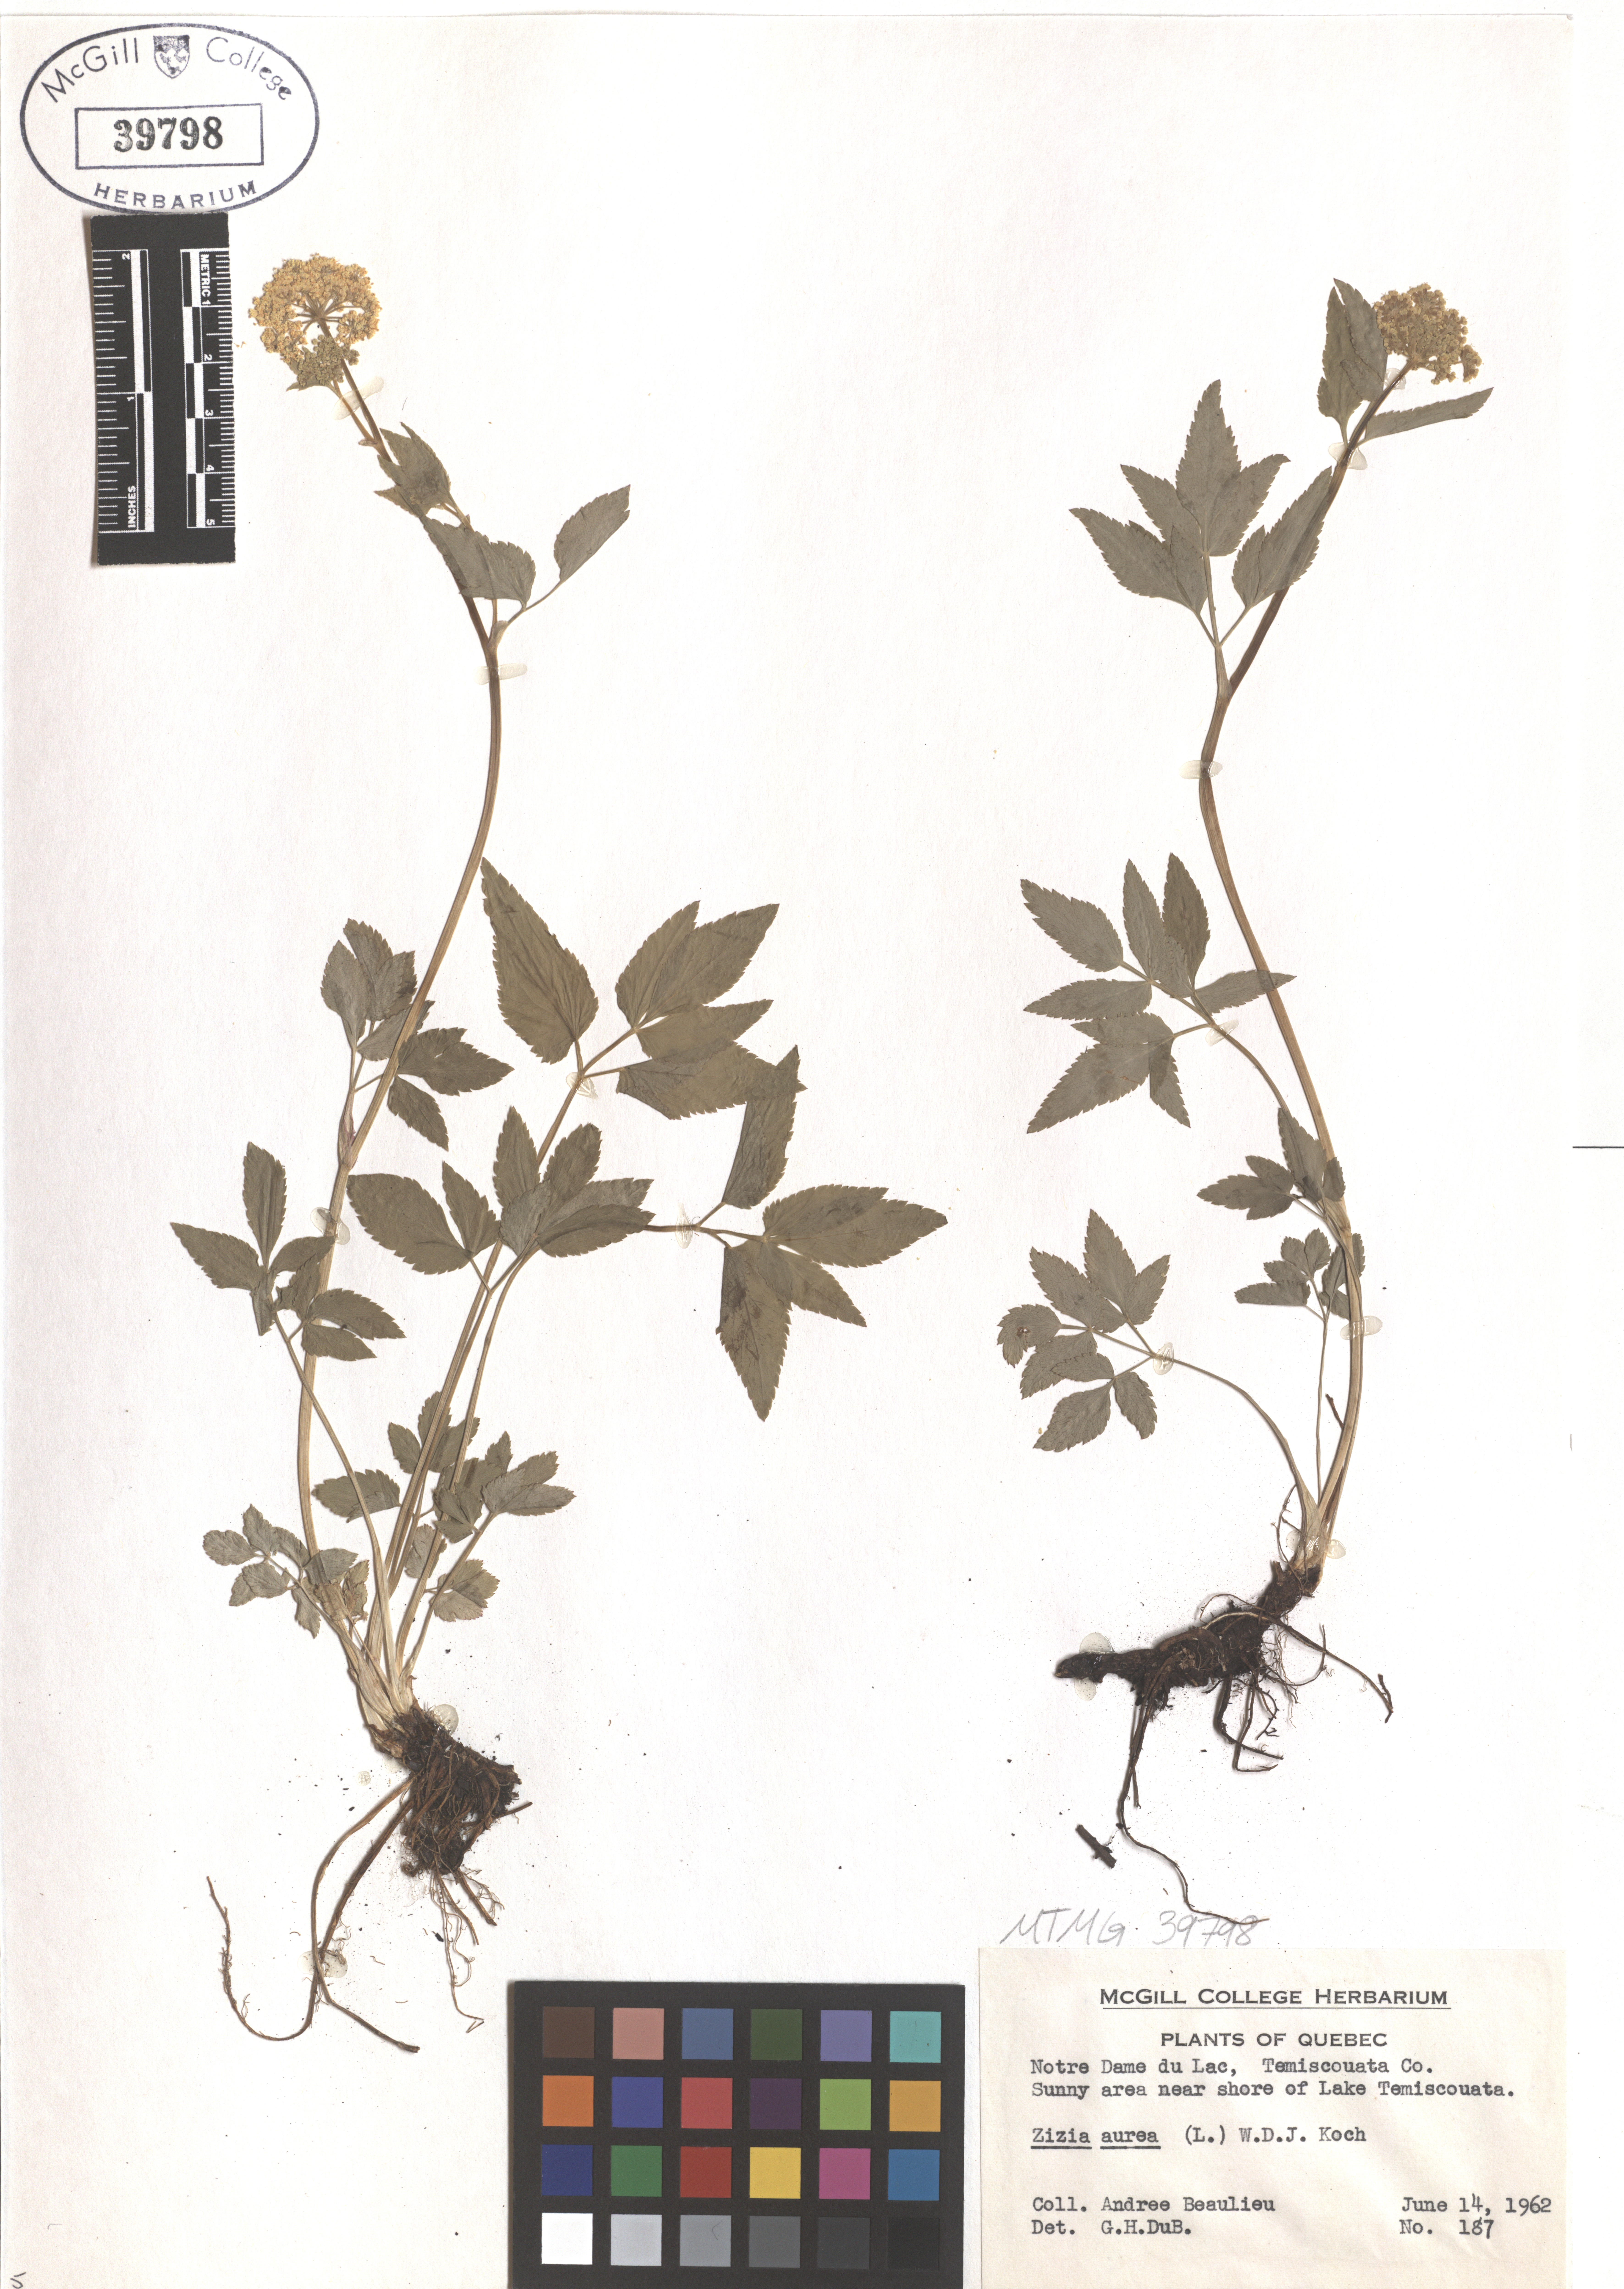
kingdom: Plantae
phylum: Tracheophyta
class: Magnoliopsida
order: Apiales
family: Apiaceae
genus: Zizia
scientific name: Zizia aurea
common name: Golden alexanders
